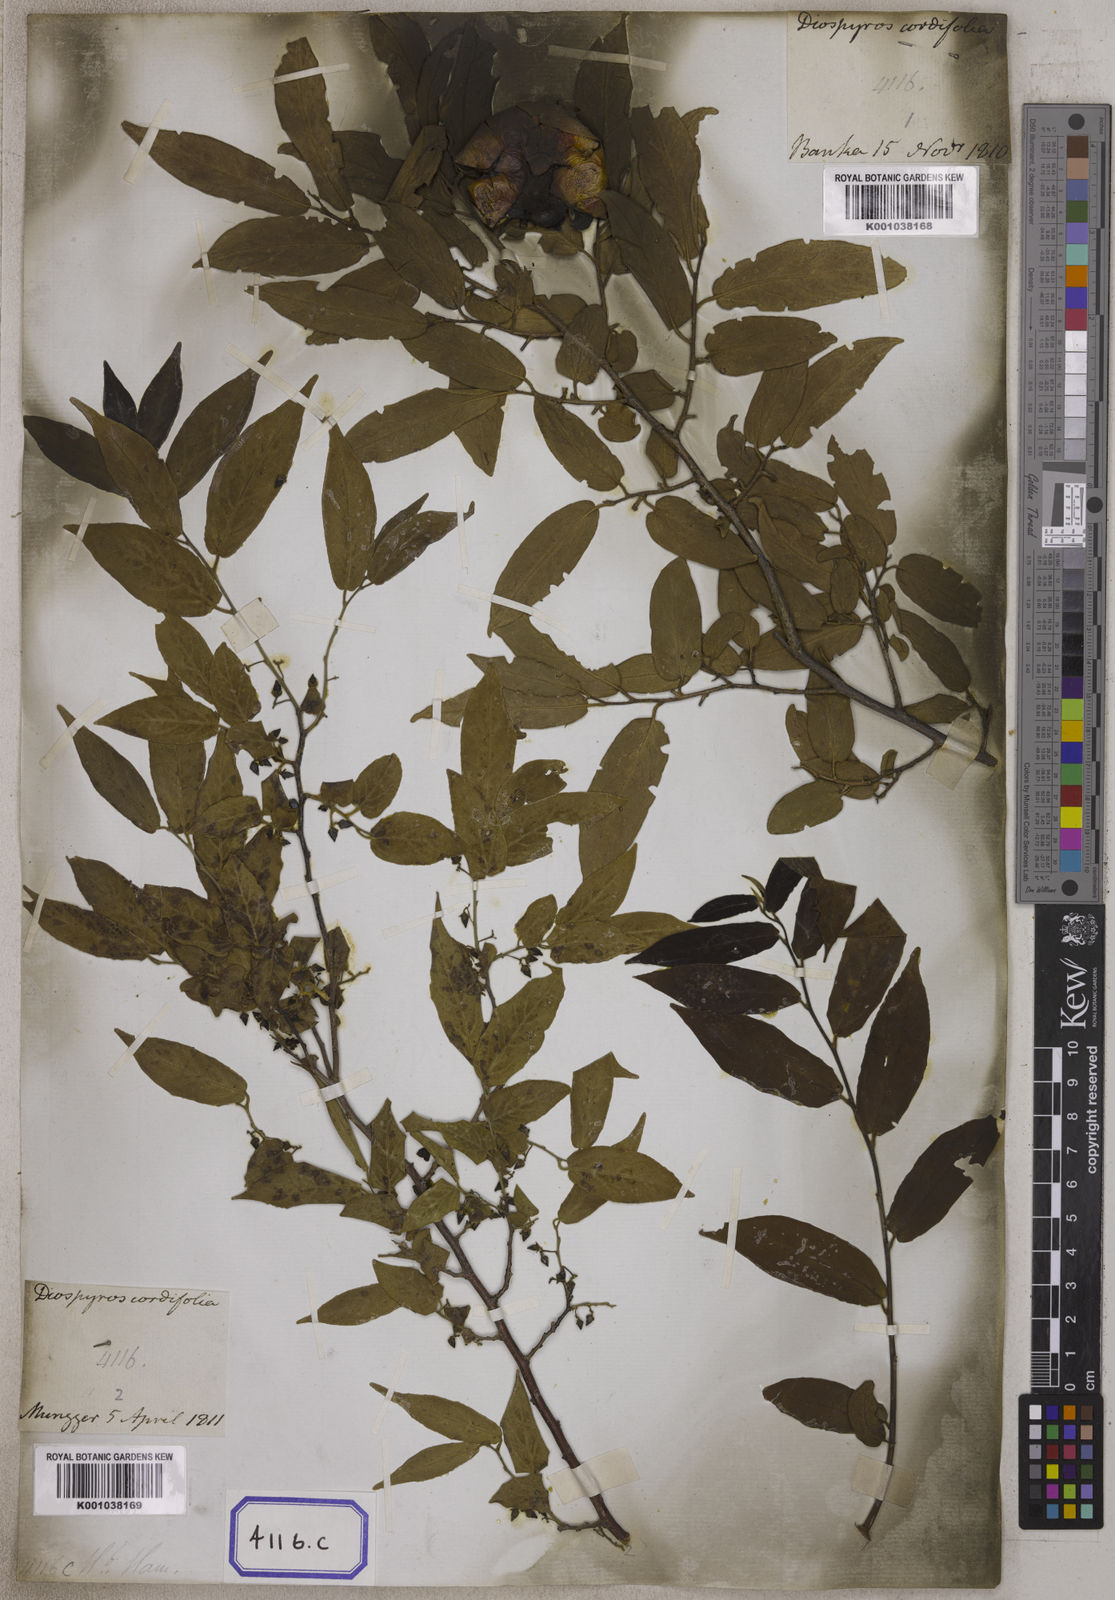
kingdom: Plantae
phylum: Tracheophyta
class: Magnoliopsida
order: Ericales
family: Ebenaceae
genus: Diospyros
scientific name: Diospyros montana
